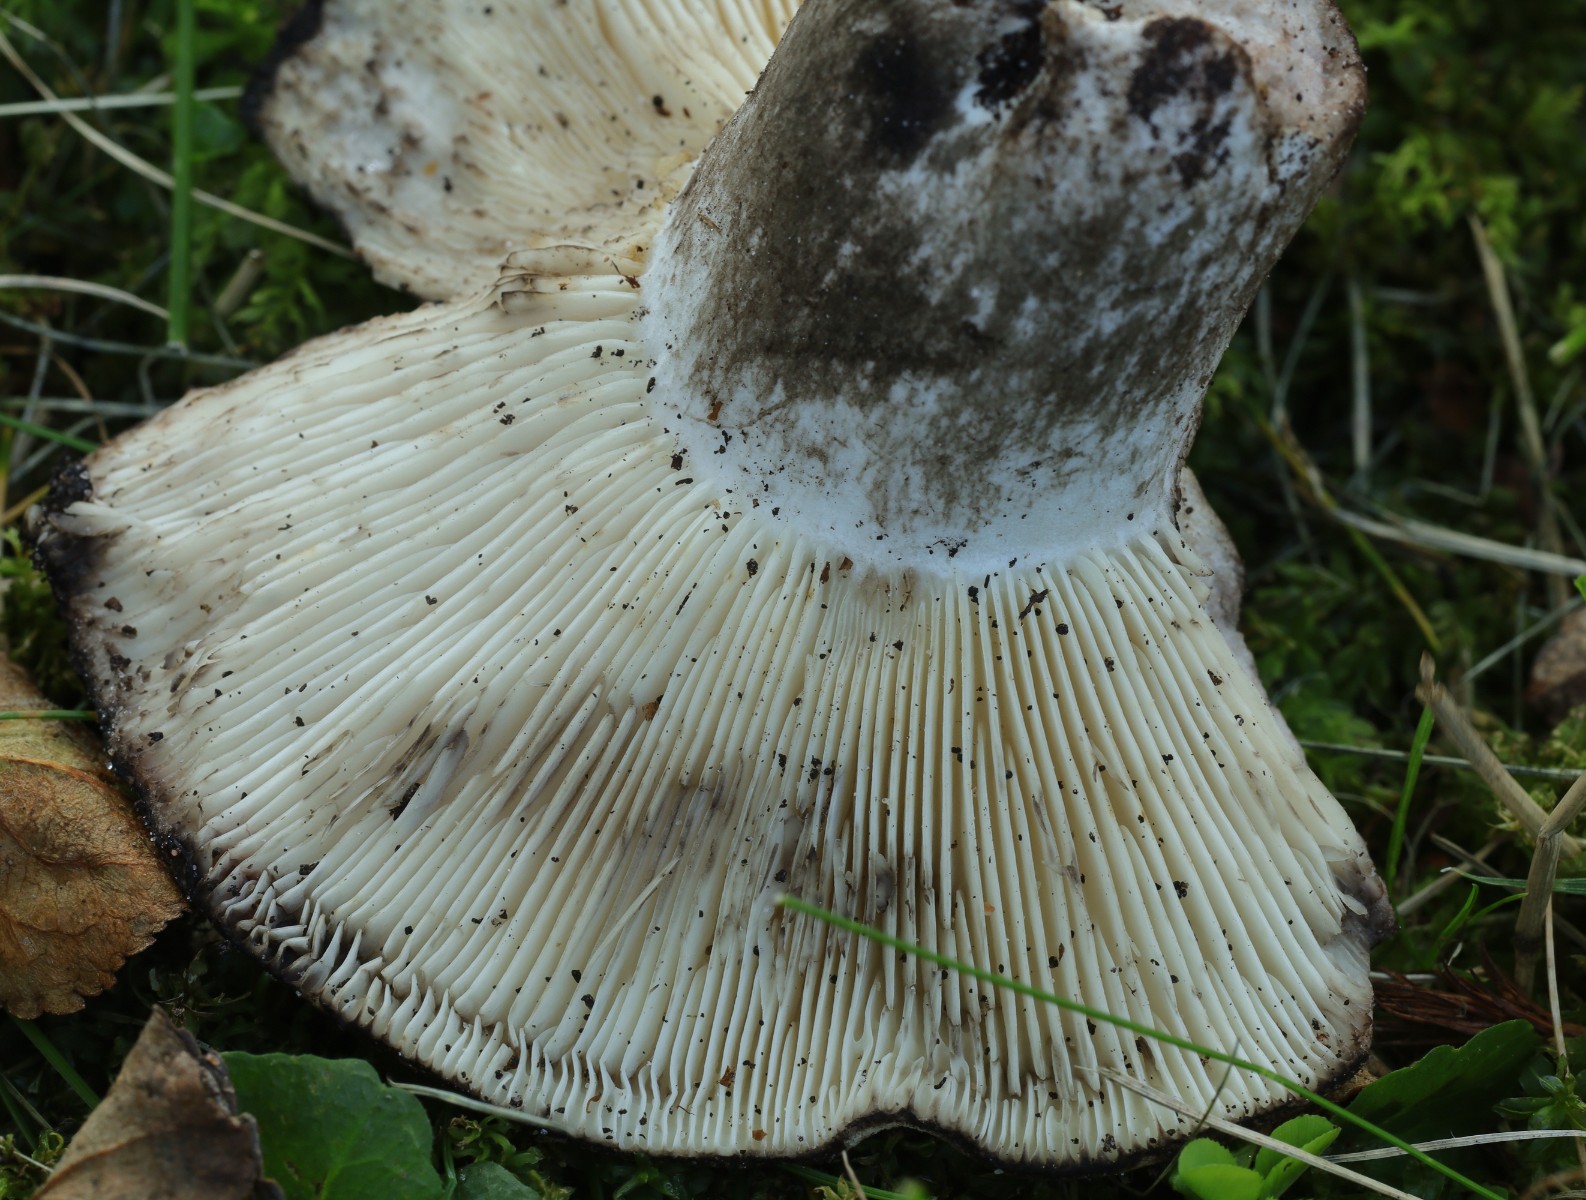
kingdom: Fungi
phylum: Basidiomycota
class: Agaricomycetes
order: Russulales
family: Russulaceae
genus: Russula
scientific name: Russula densifolia
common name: tætbladet skørhat
